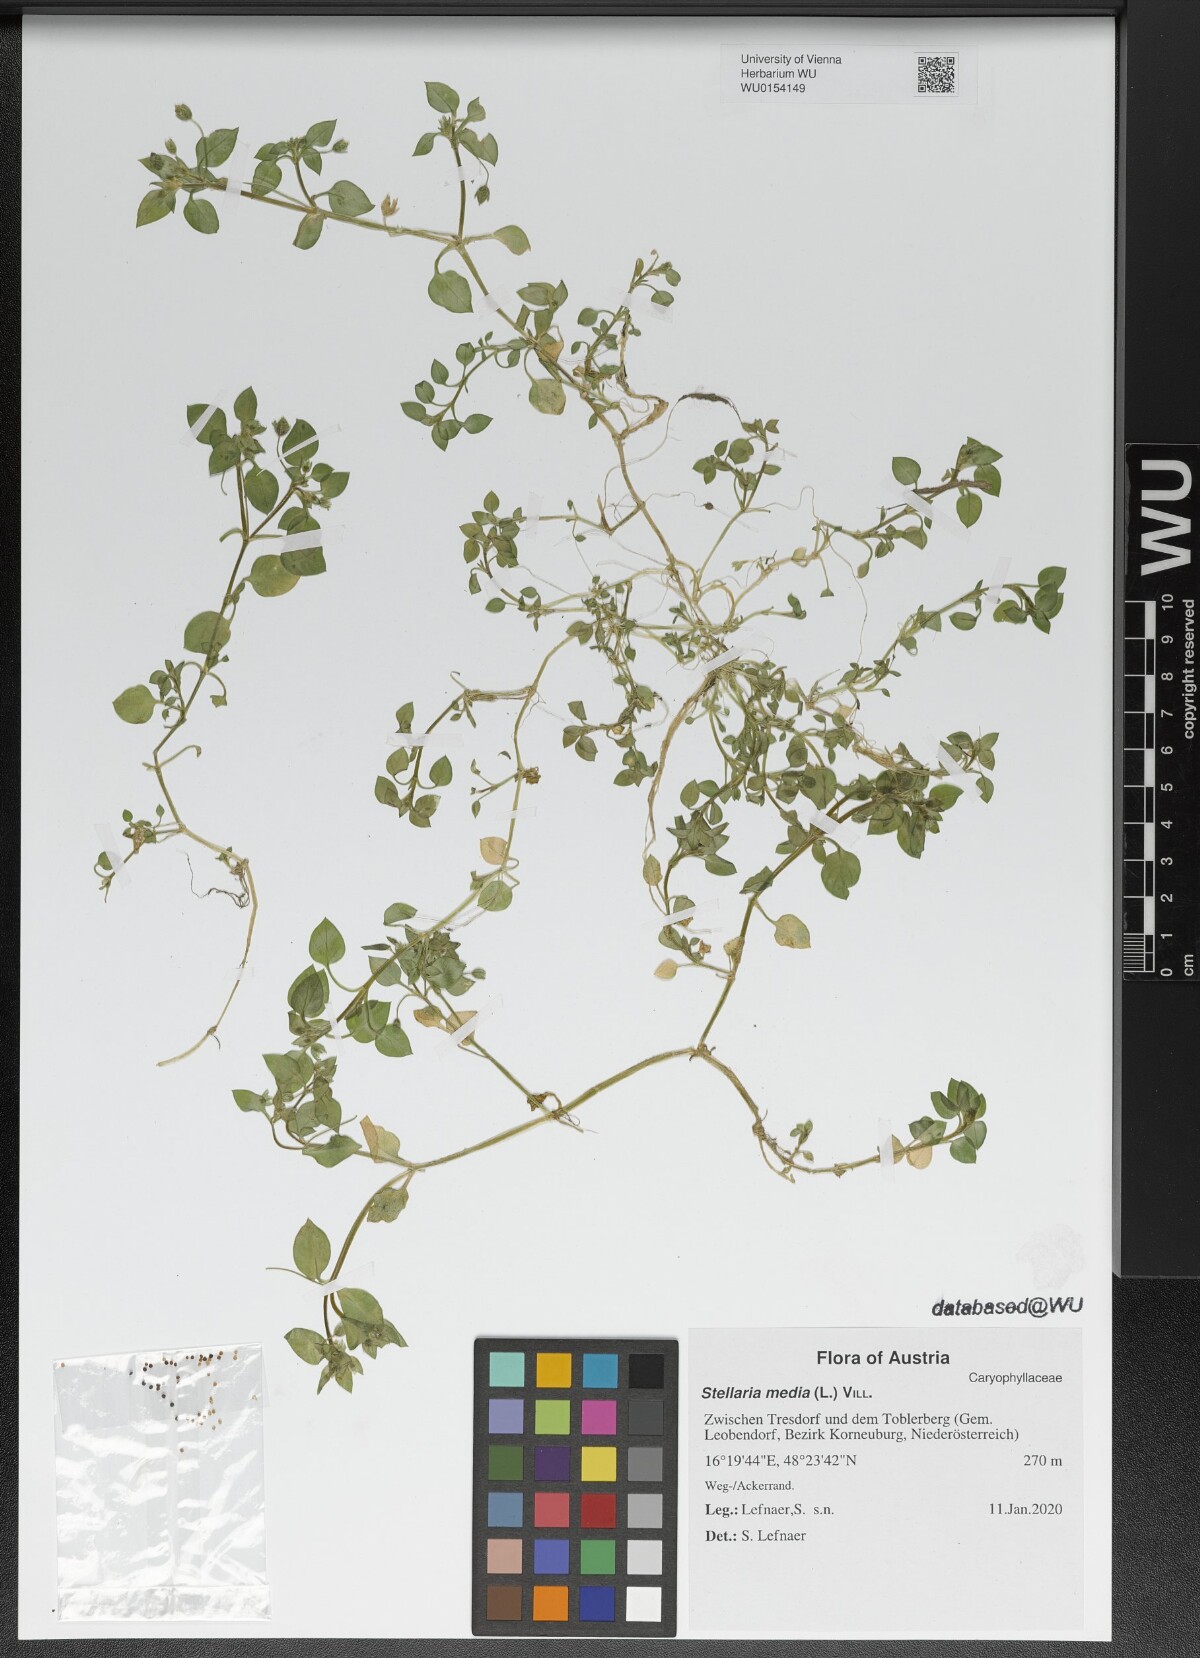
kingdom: Plantae
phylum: Tracheophyta
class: Magnoliopsida
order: Caryophyllales
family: Caryophyllaceae
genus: Stellaria
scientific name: Stellaria media
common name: Common chickweed
